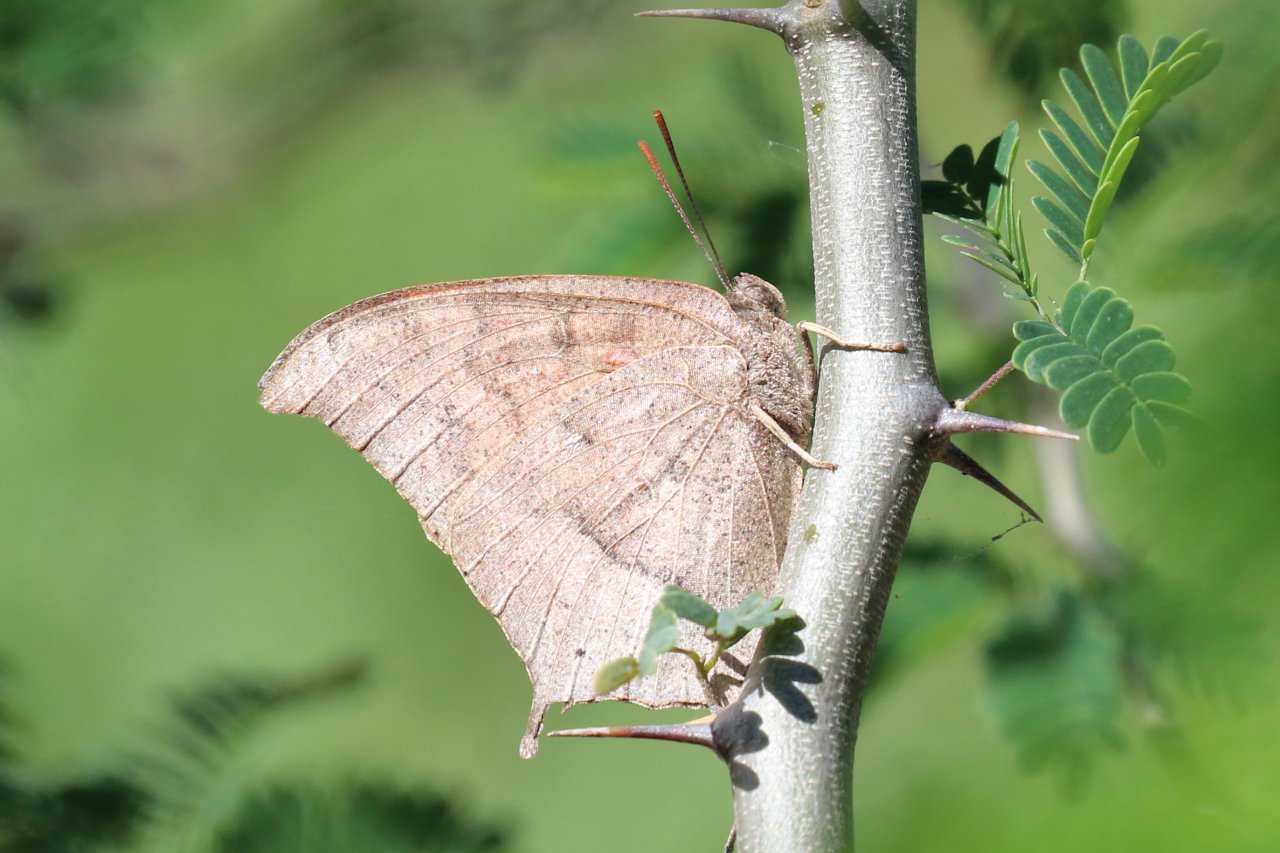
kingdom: Animalia
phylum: Arthropoda
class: Insecta
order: Lepidoptera
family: Nymphalidae
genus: Anaea
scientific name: Anaea andria
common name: Goatweed Leafwing
